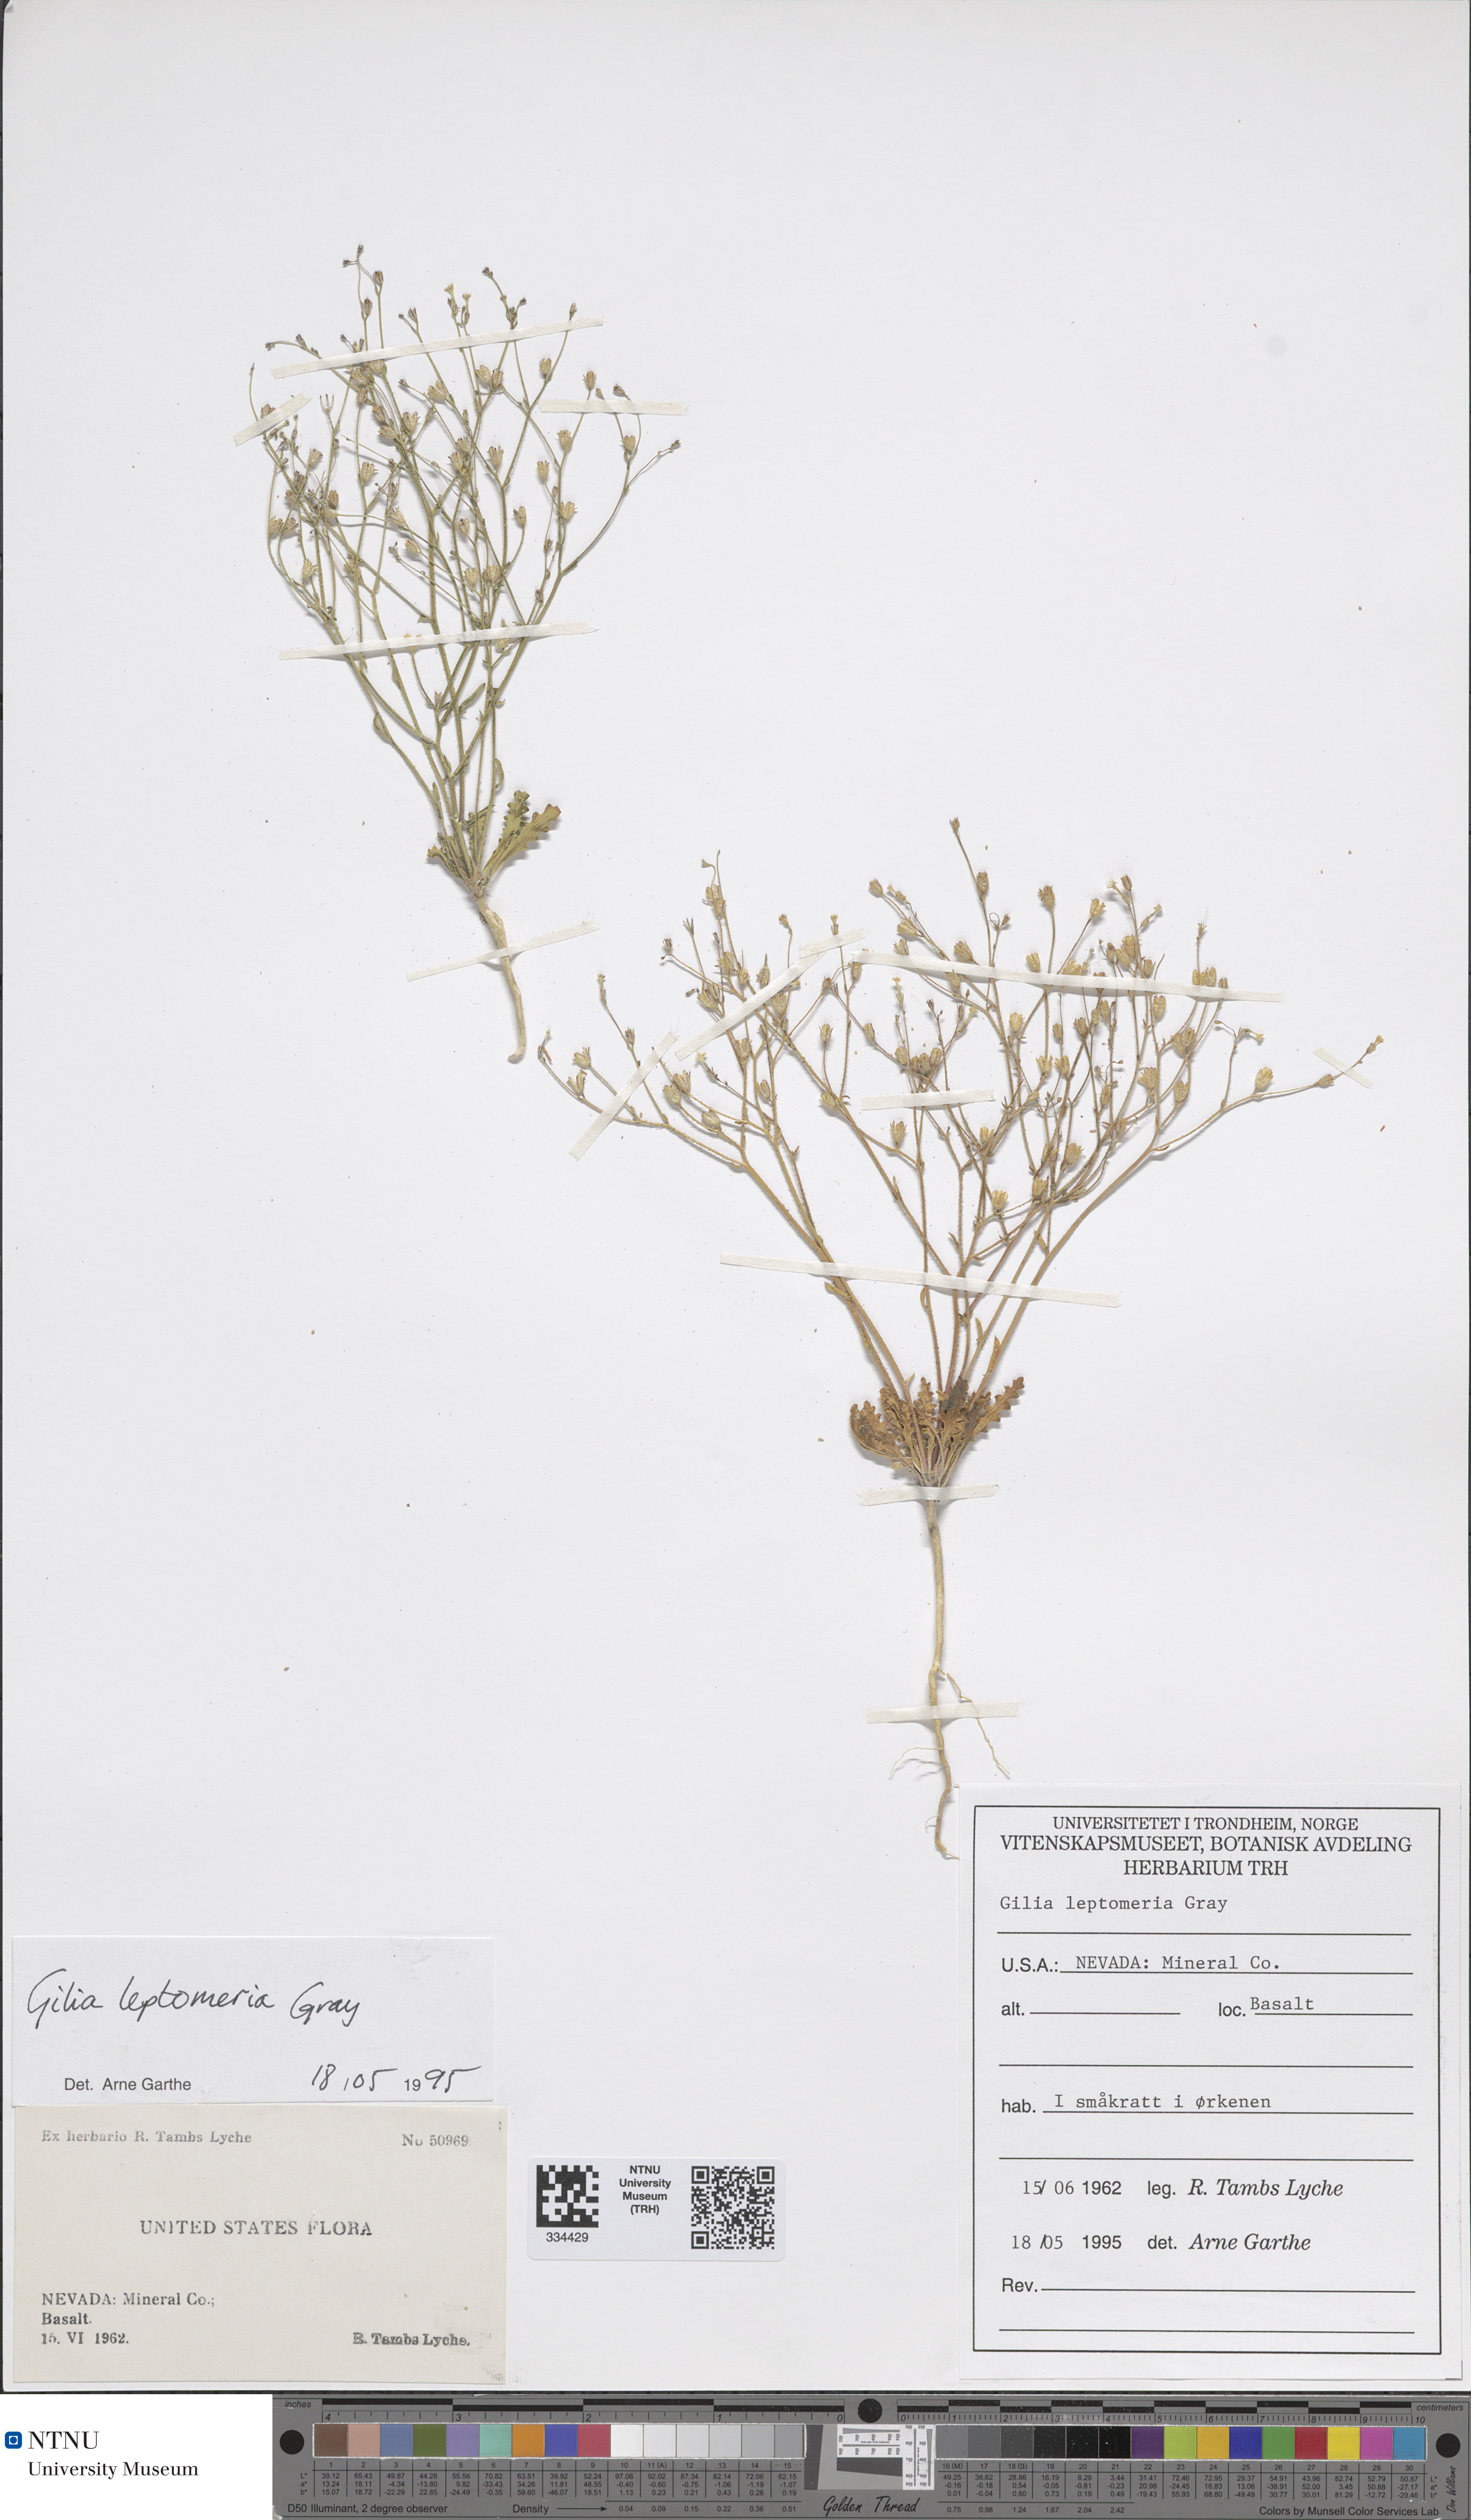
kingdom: Plantae
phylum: Tracheophyta
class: Magnoliopsida
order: Ericales
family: Polemoniaceae
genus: Aliciella
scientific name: Aliciella leptomeria
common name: Sand gilia
